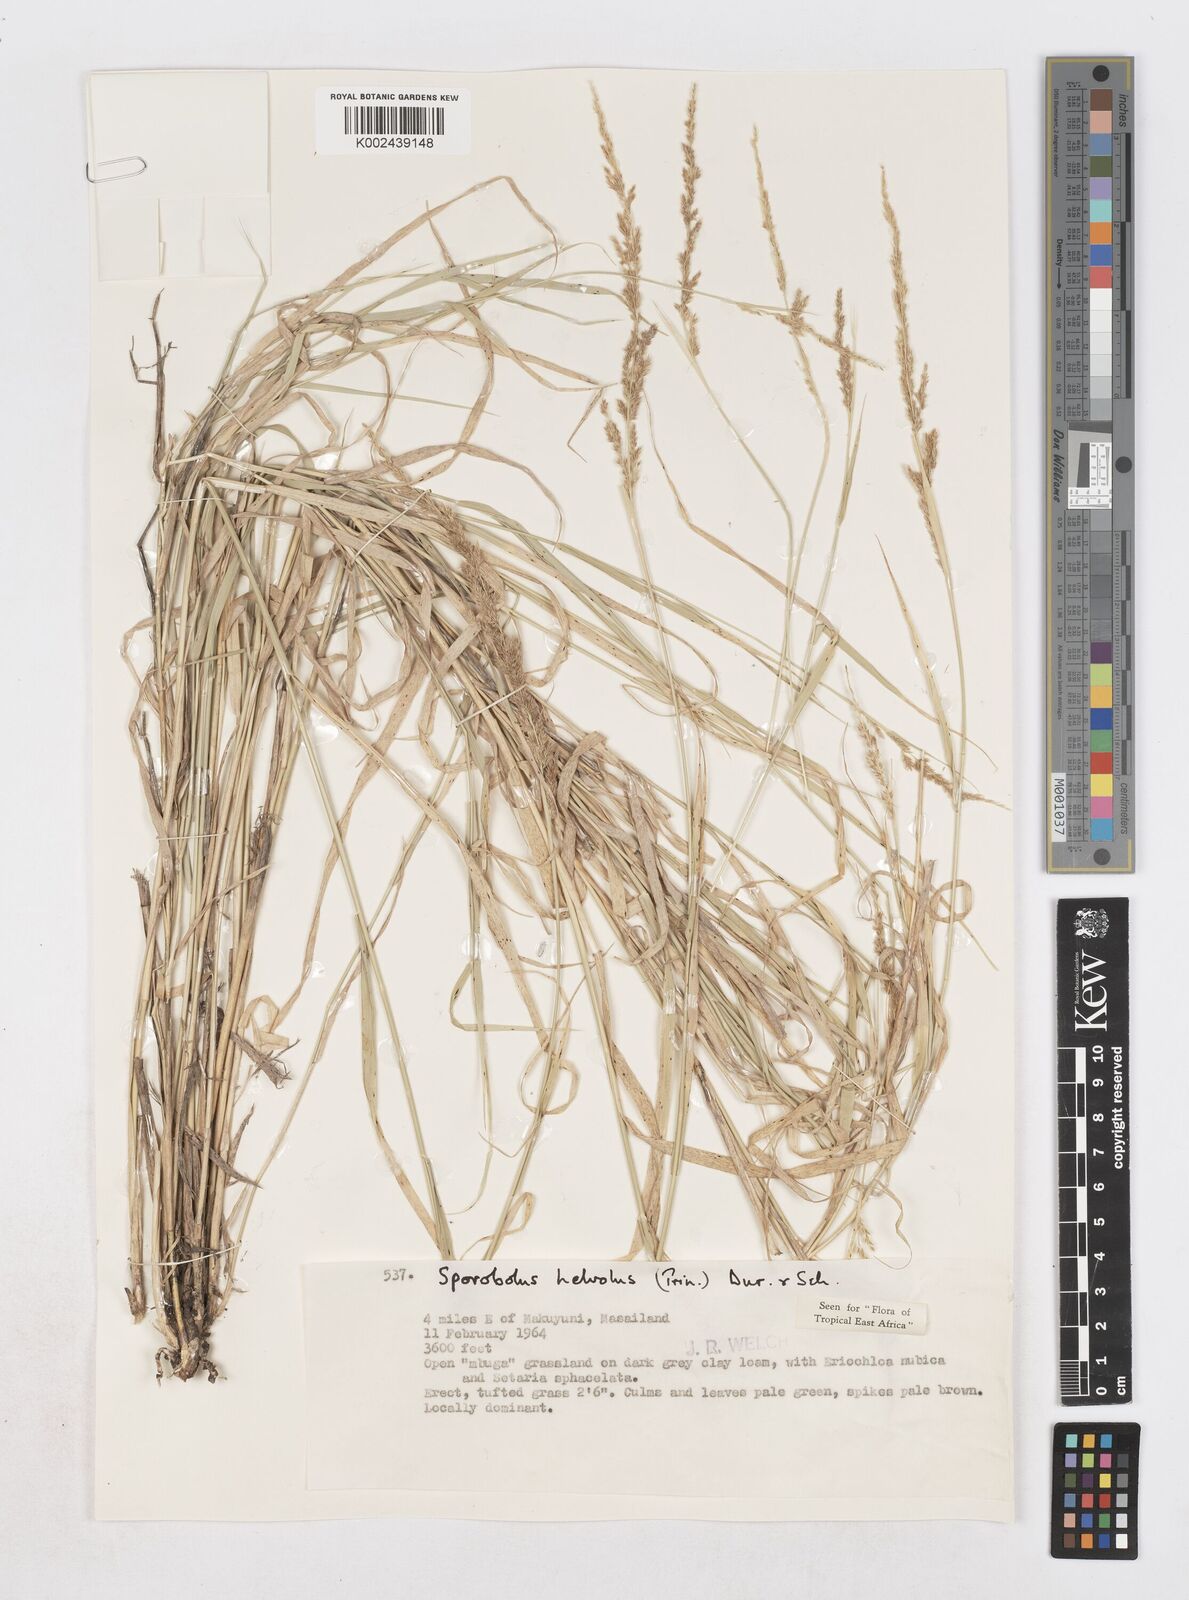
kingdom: Plantae
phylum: Tracheophyta
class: Liliopsida
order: Poales
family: Poaceae
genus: Sporobolus
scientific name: Sporobolus helvolus
